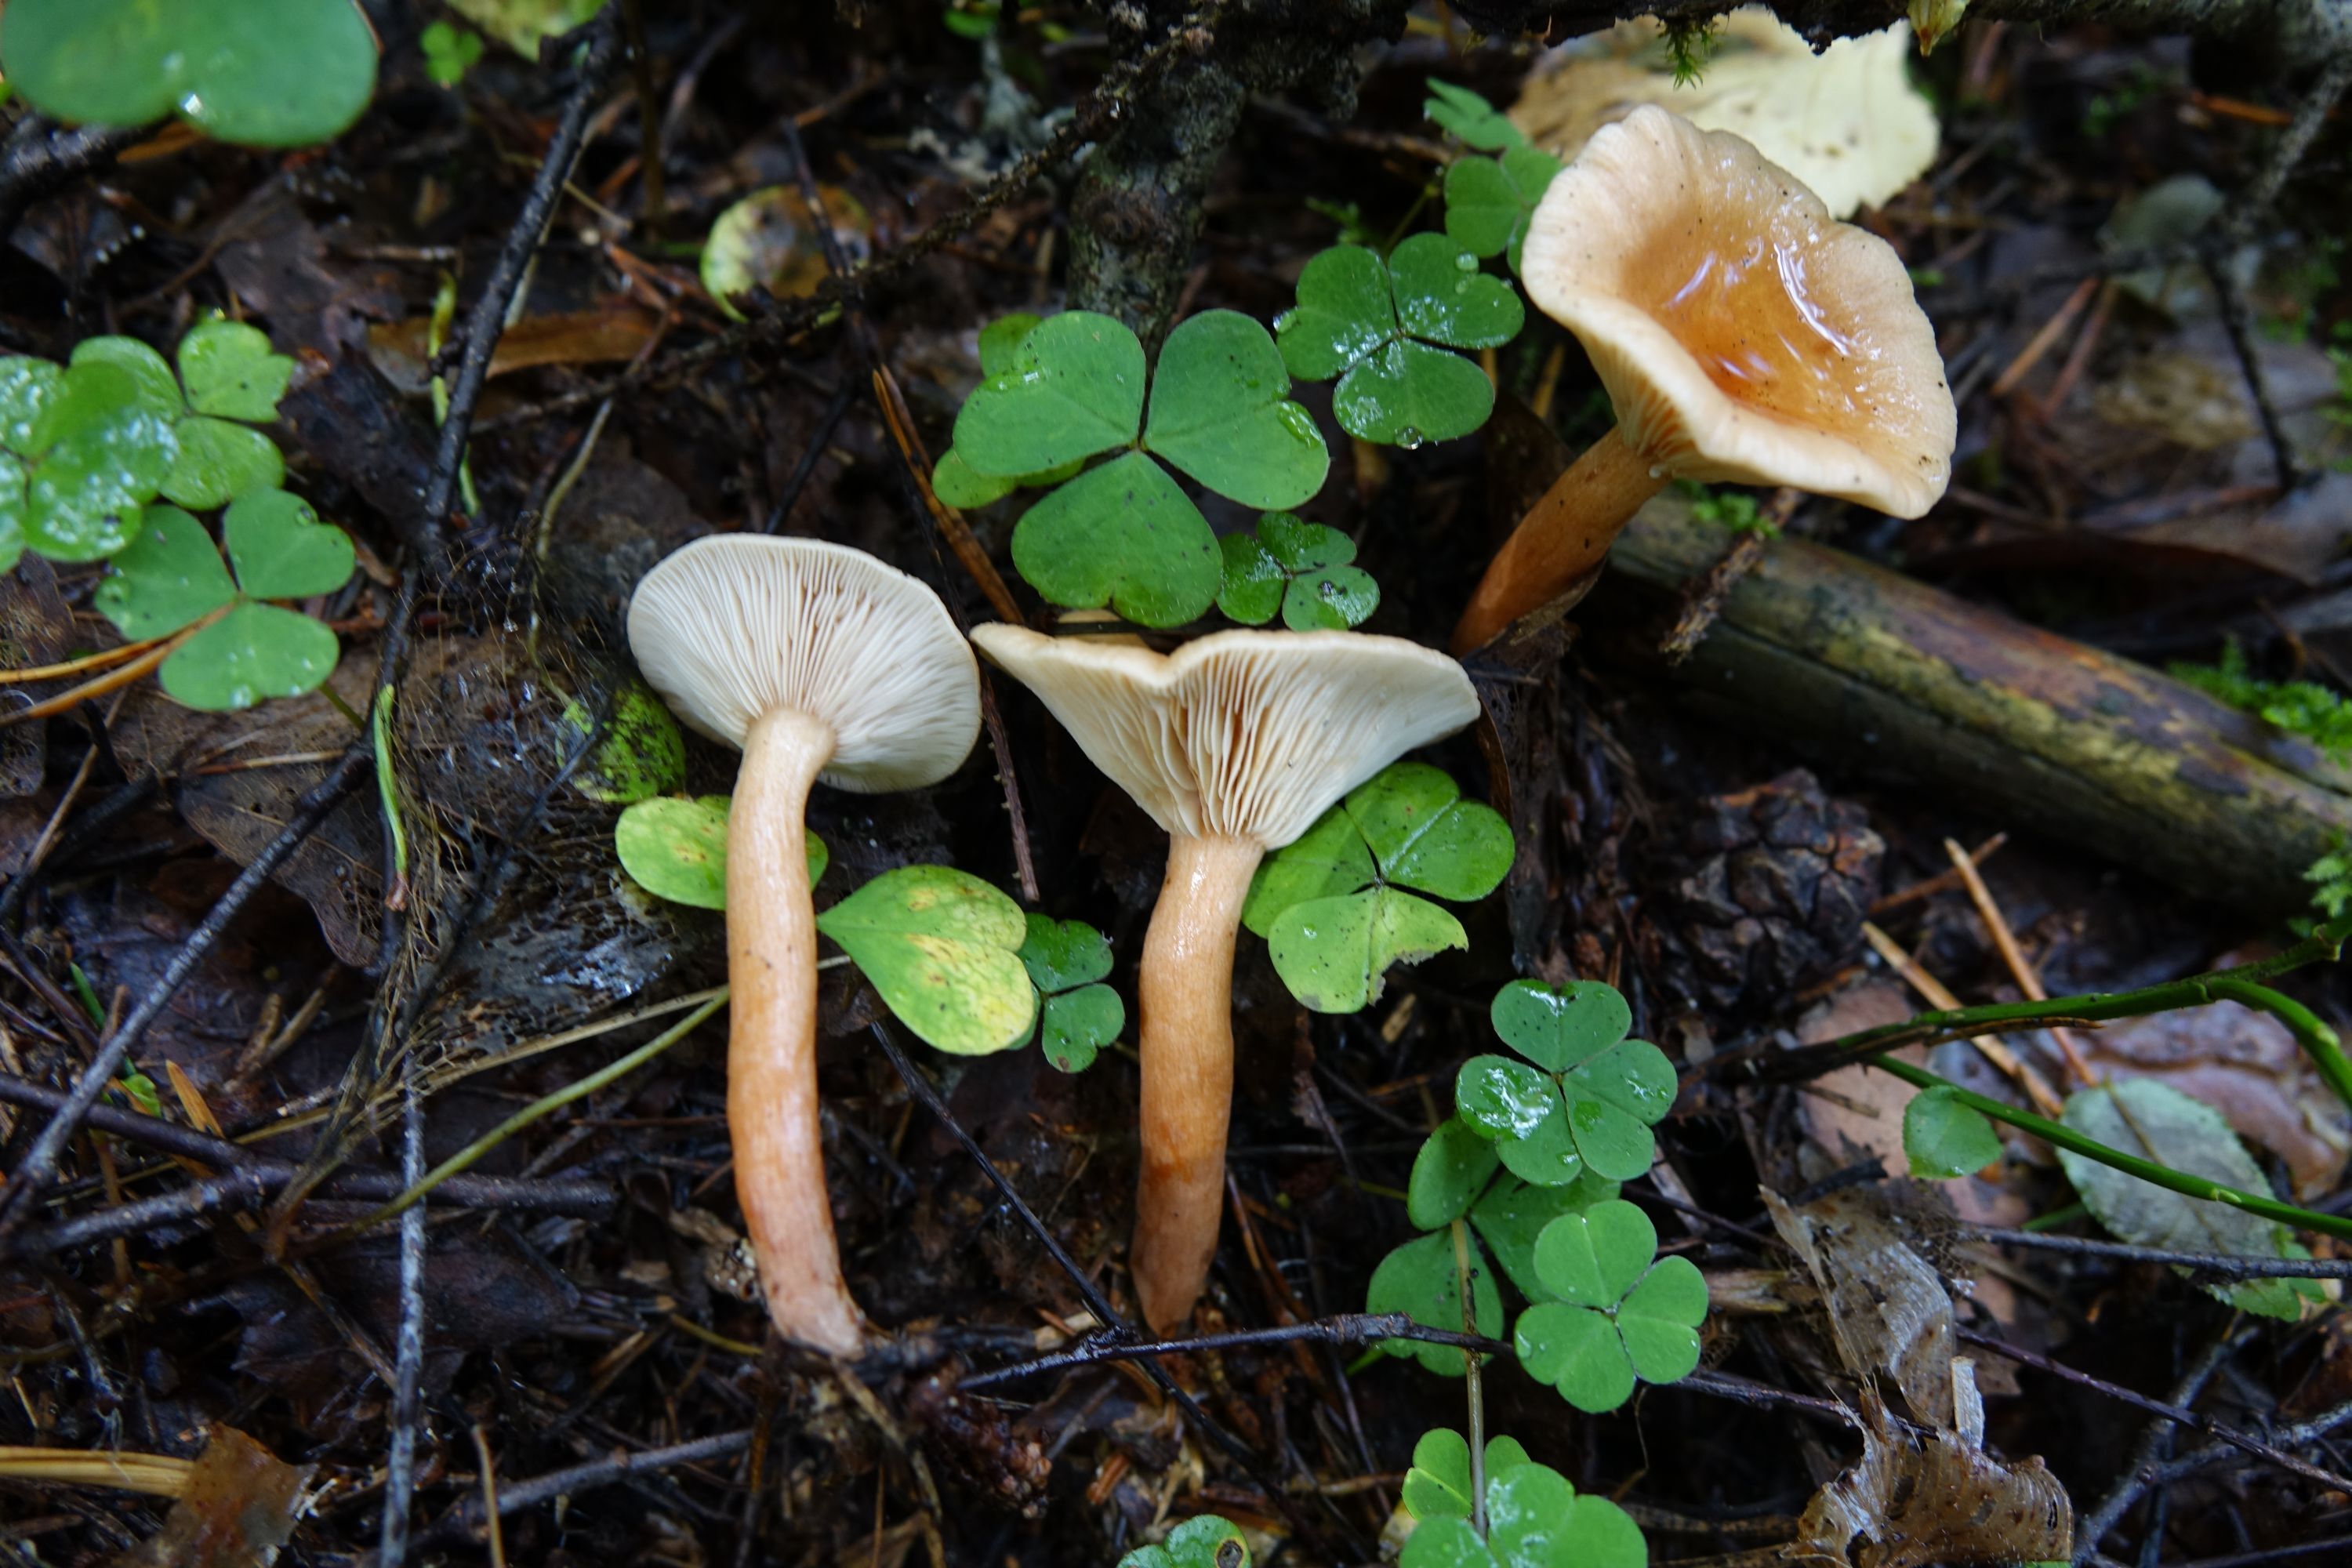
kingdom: Fungi
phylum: Basidiomycota
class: Agaricomycetes
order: Russulales
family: Russulaceae
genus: Lactarius
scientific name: Lactarius tabidus
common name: Birch milkcap
